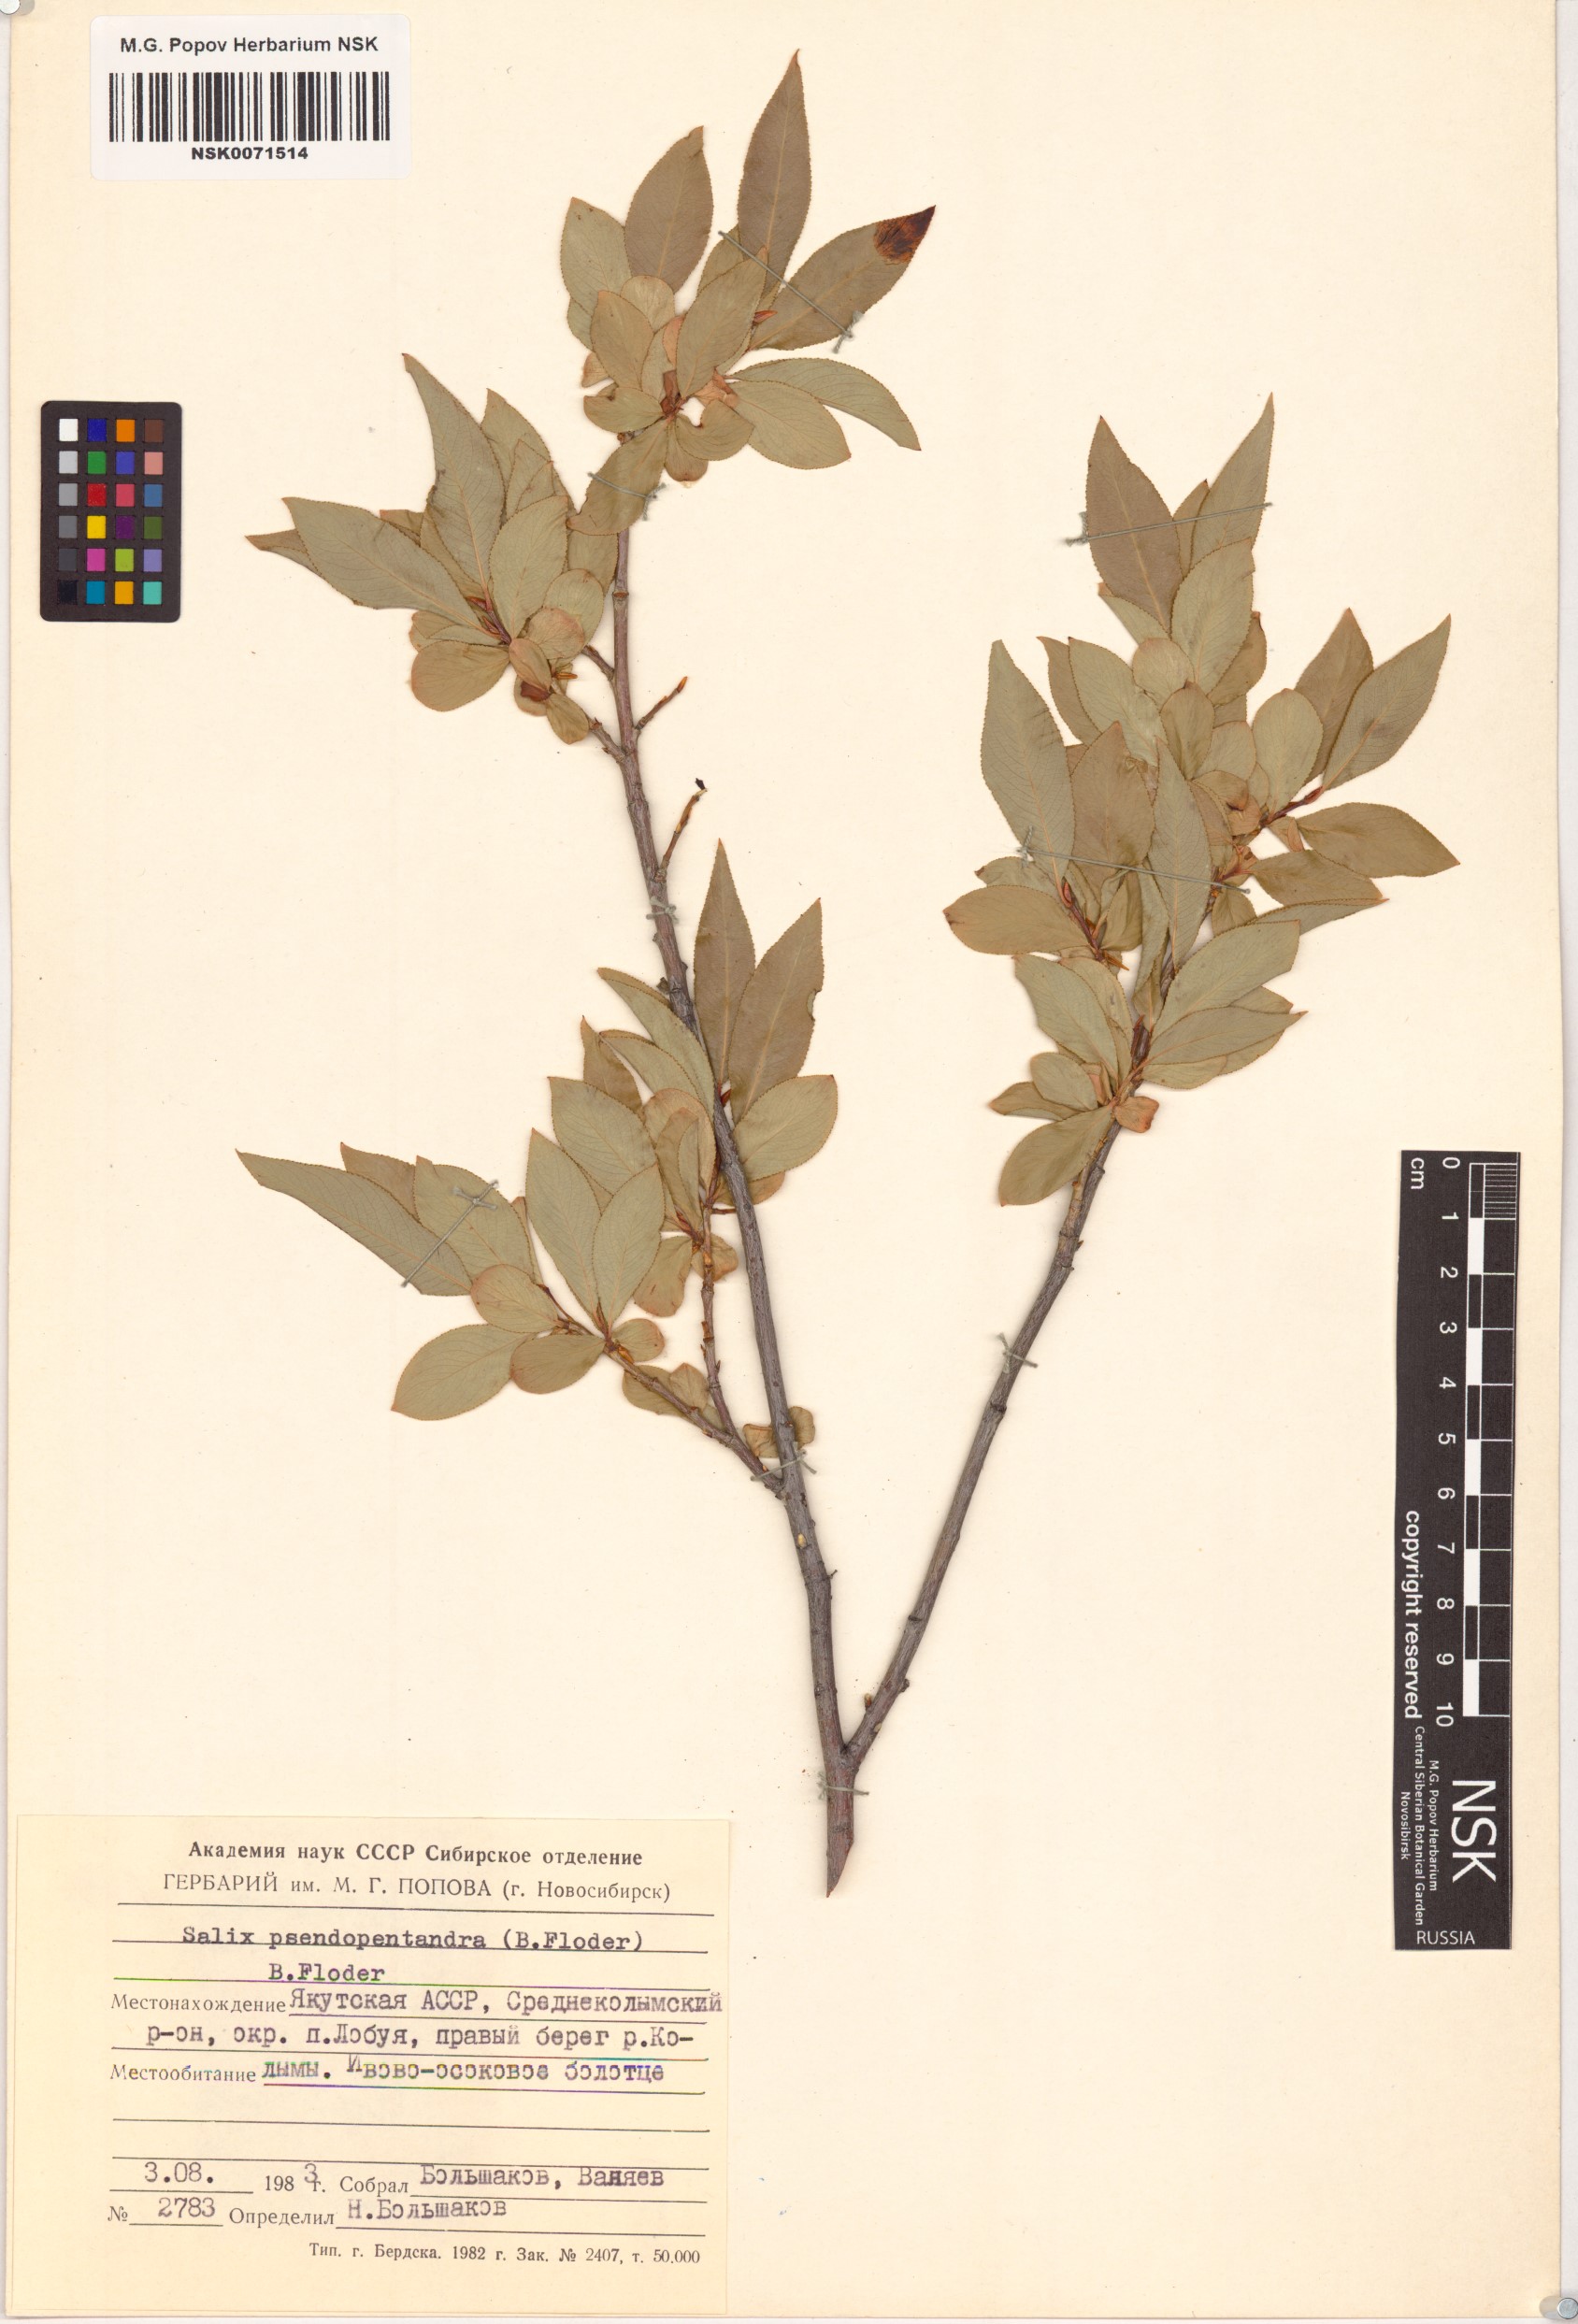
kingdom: Plantae
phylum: Tracheophyta
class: Magnoliopsida
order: Malpighiales
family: Salicaceae
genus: Salix
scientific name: Salix pseudopentandra
